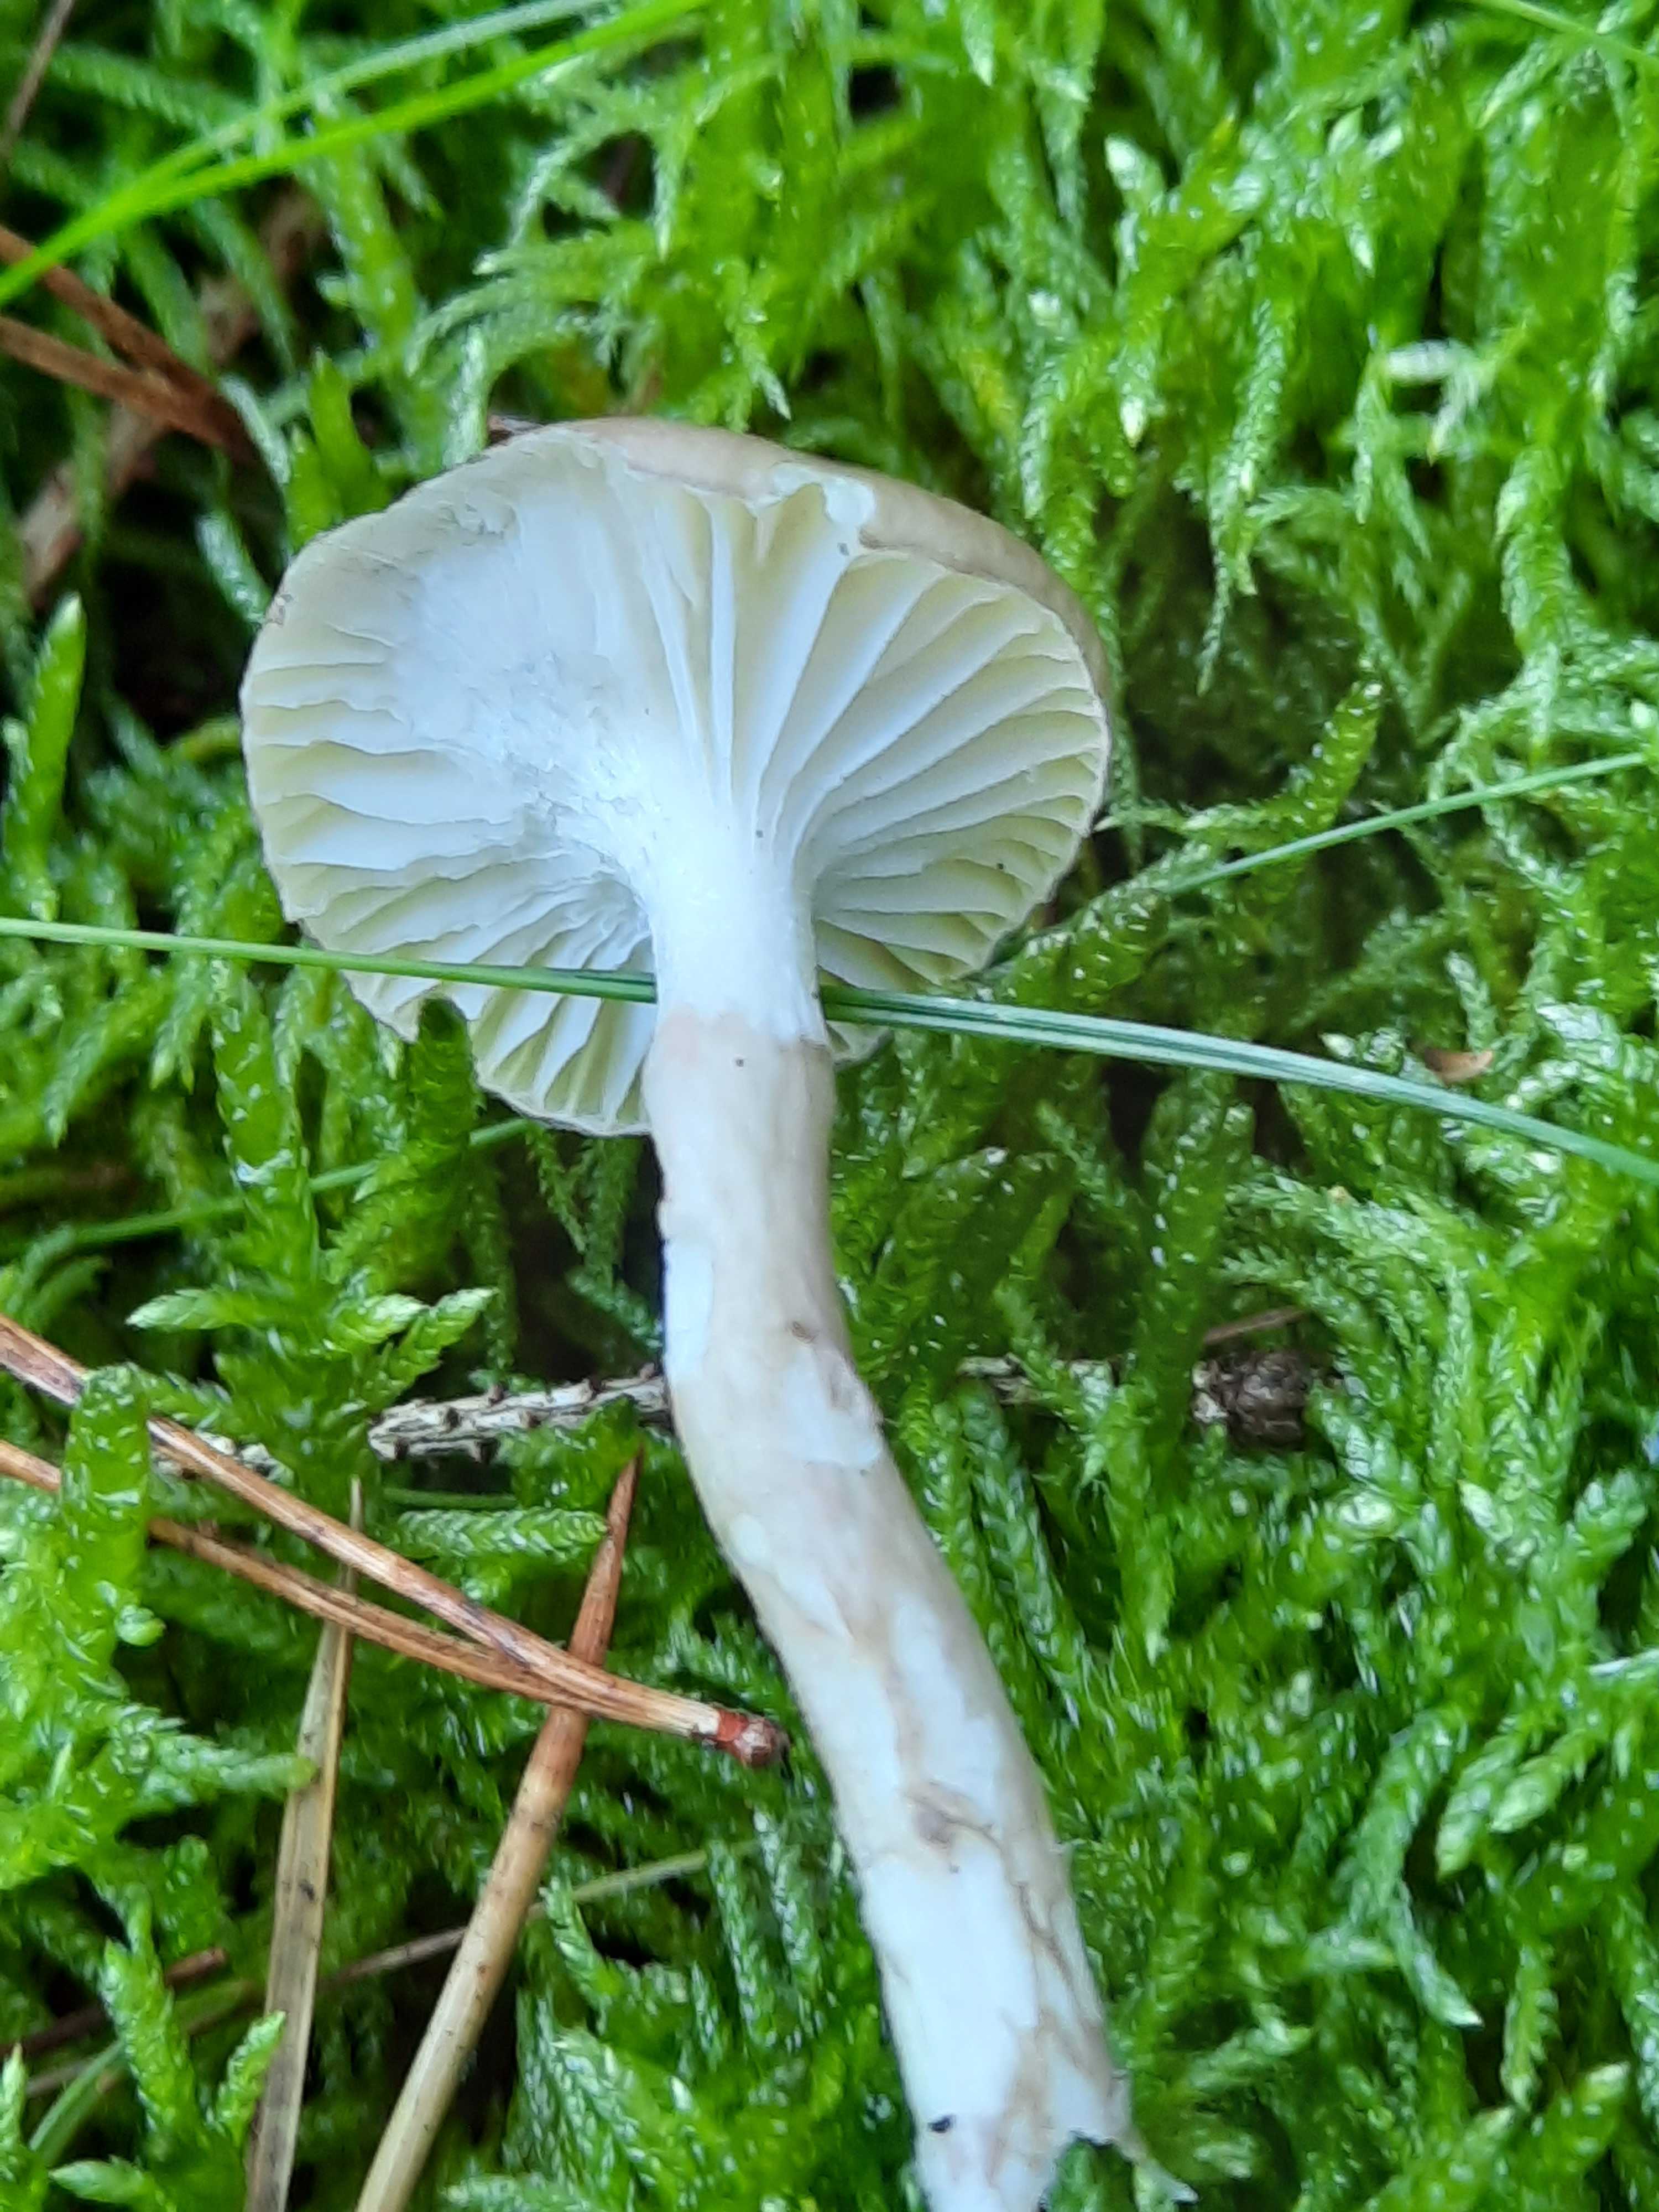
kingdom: Fungi
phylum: Basidiomycota
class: Agaricomycetes
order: Agaricales
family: Hygrophoraceae
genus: Hygrophorus
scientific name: Hygrophorus olivaceoalbus
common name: hvidbrun sneglehat
